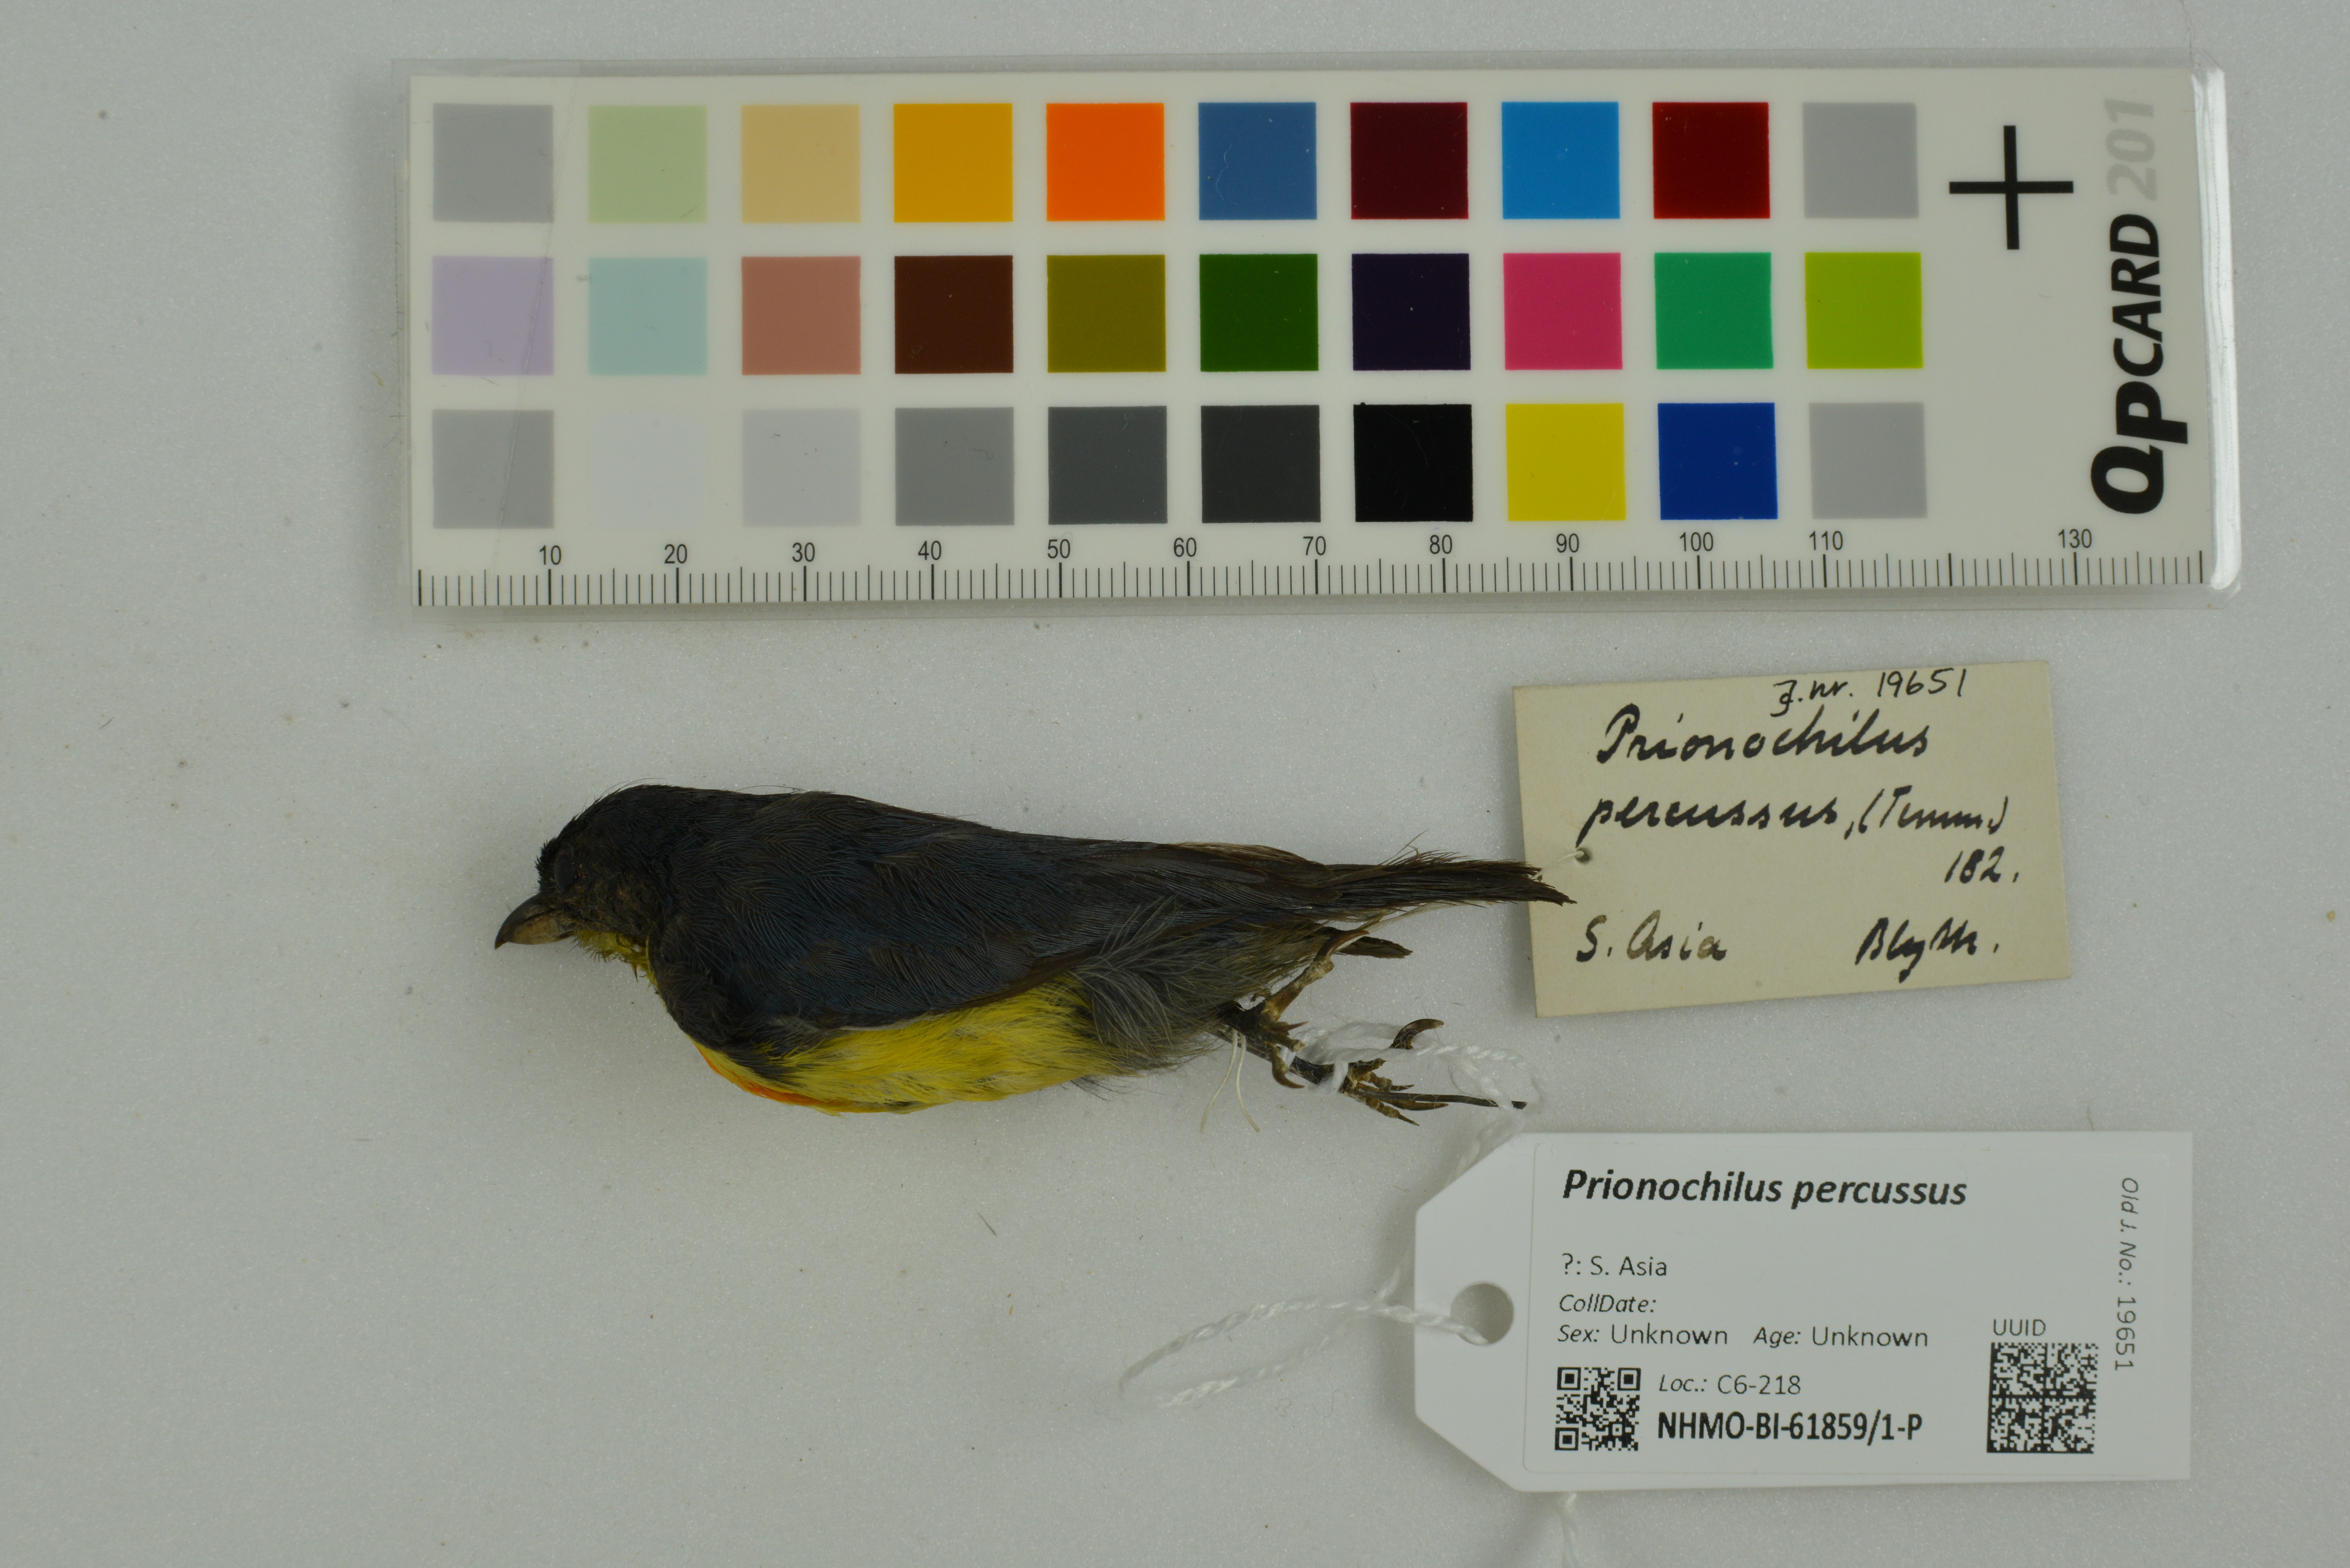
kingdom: Animalia
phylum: Chordata
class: Aves
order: Passeriformes
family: Dicaeidae
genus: Prionochilus
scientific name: Prionochilus percussus
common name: Crimson-breasted flowerpecker
